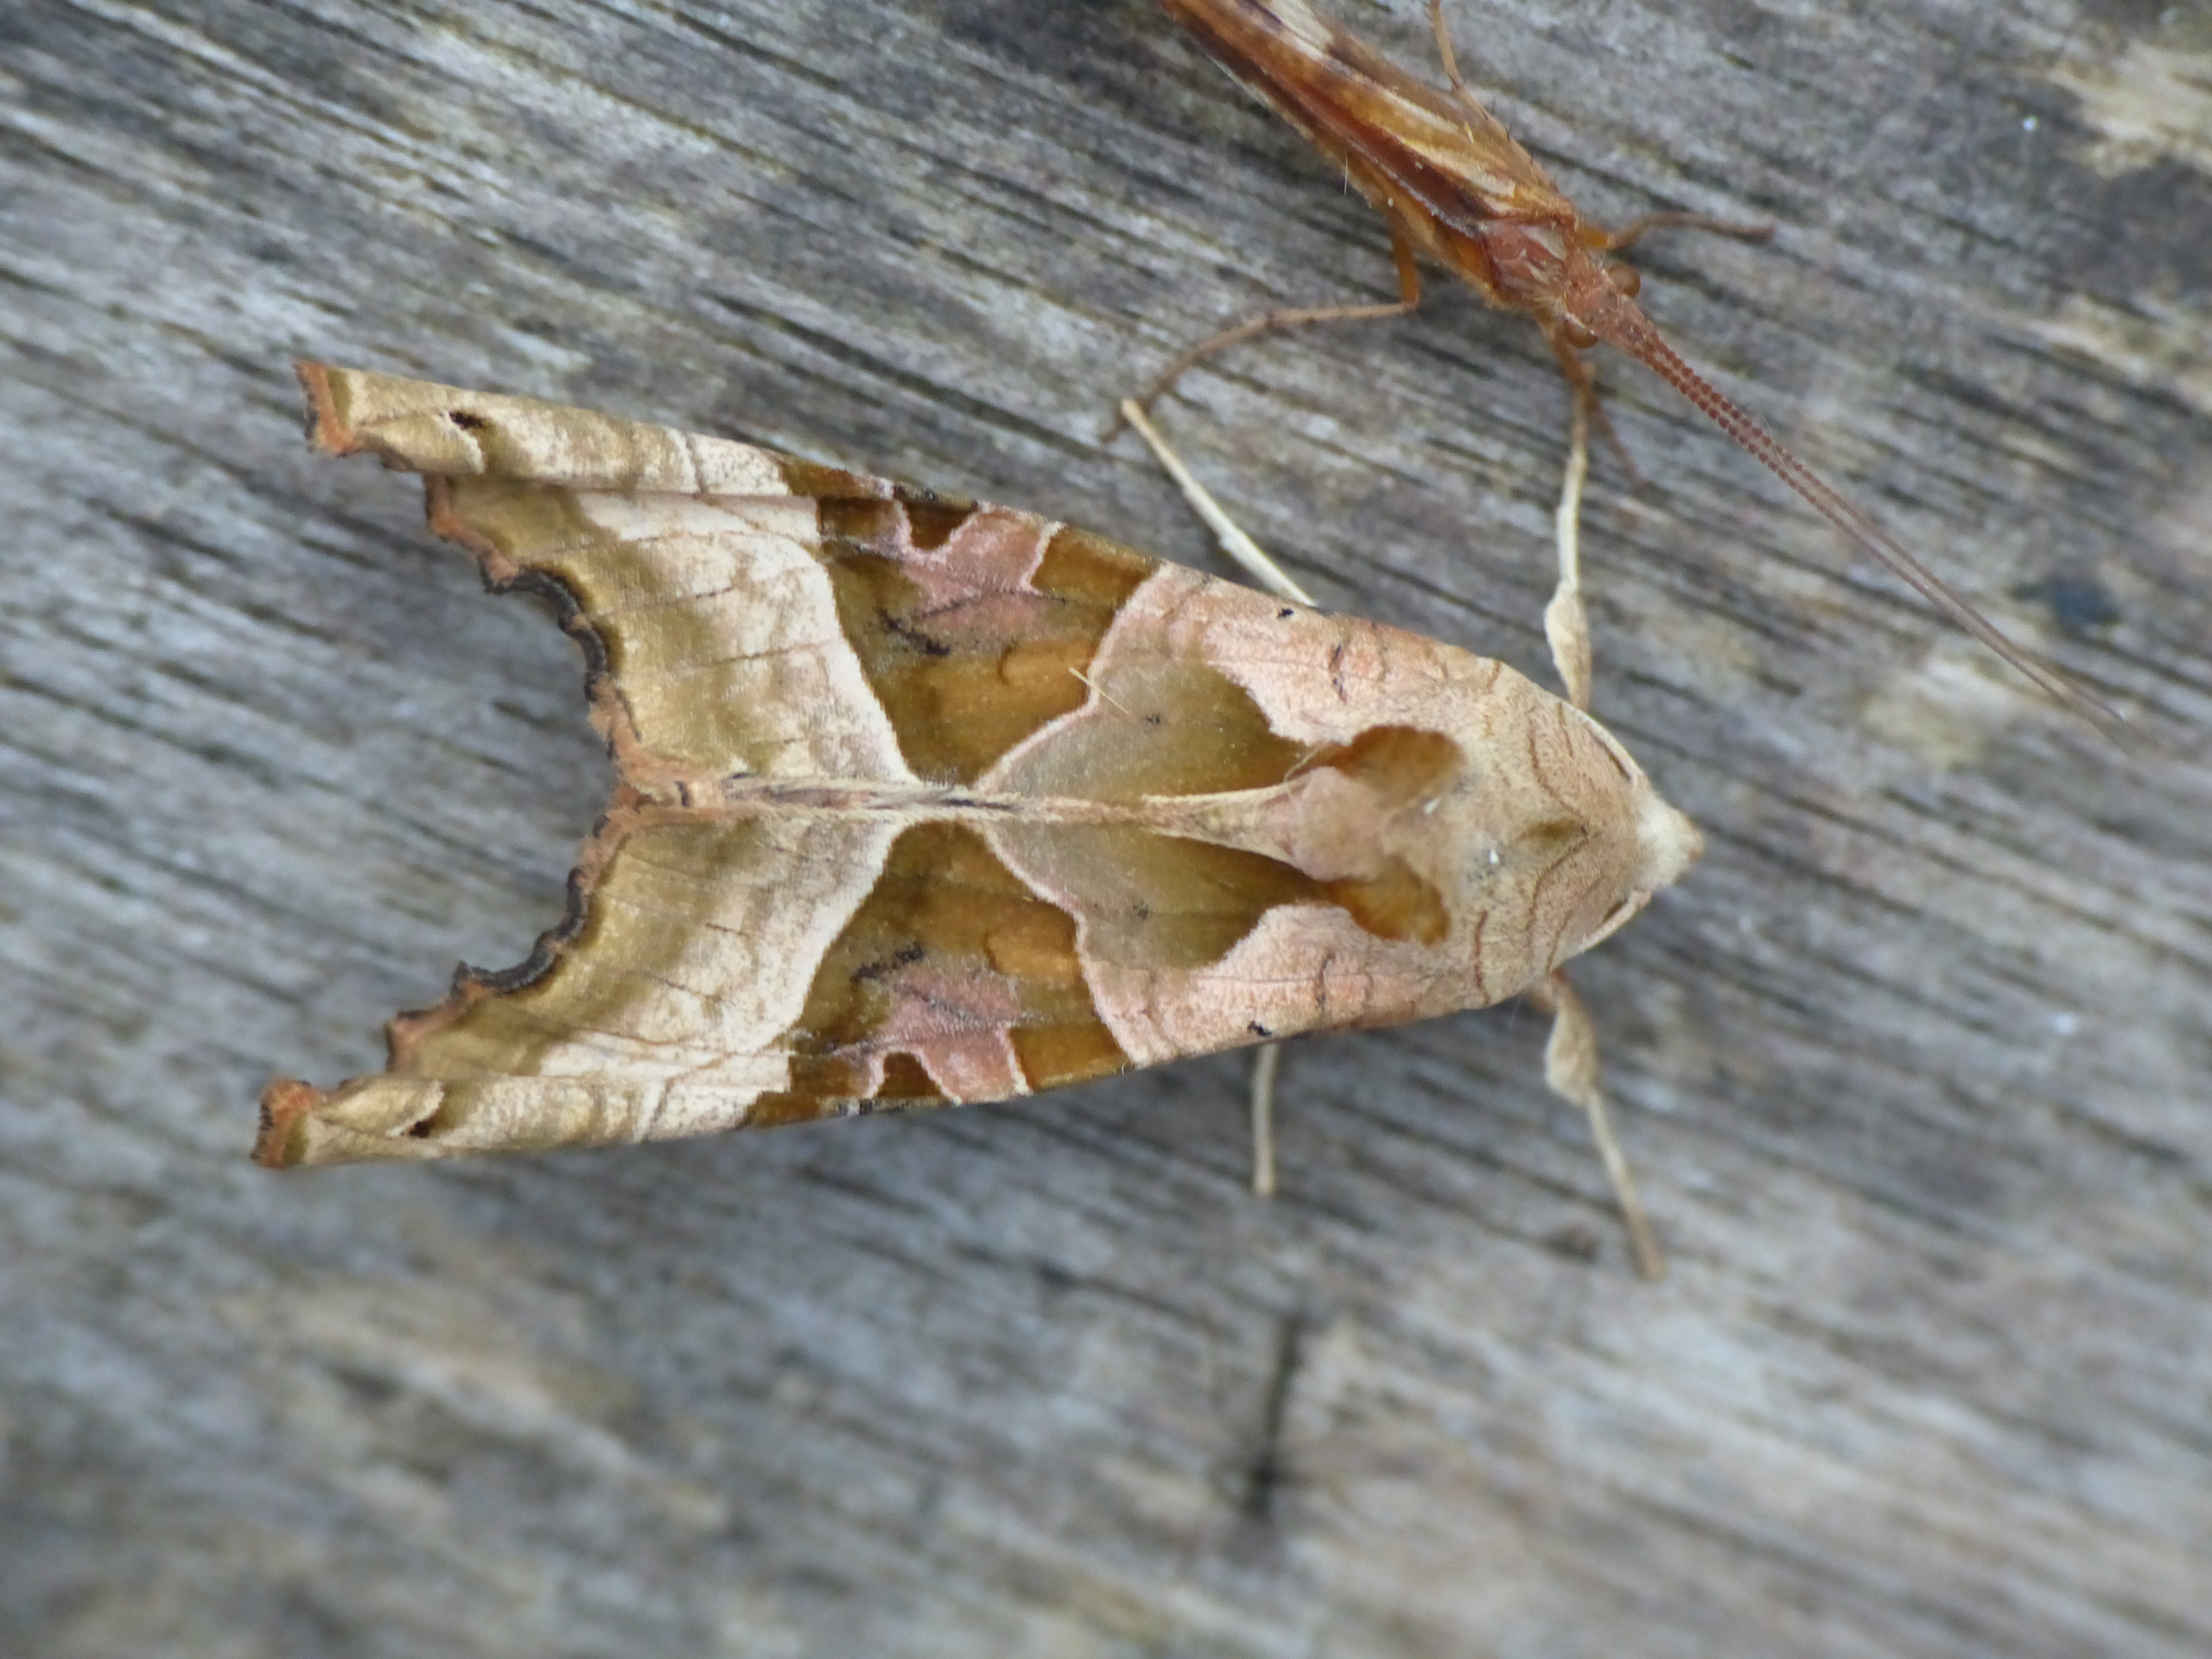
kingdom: Animalia
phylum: Arthropoda
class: Insecta
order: Lepidoptera
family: Noctuidae
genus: Phlogophora
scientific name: Phlogophora meticulosa
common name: Agatugle
